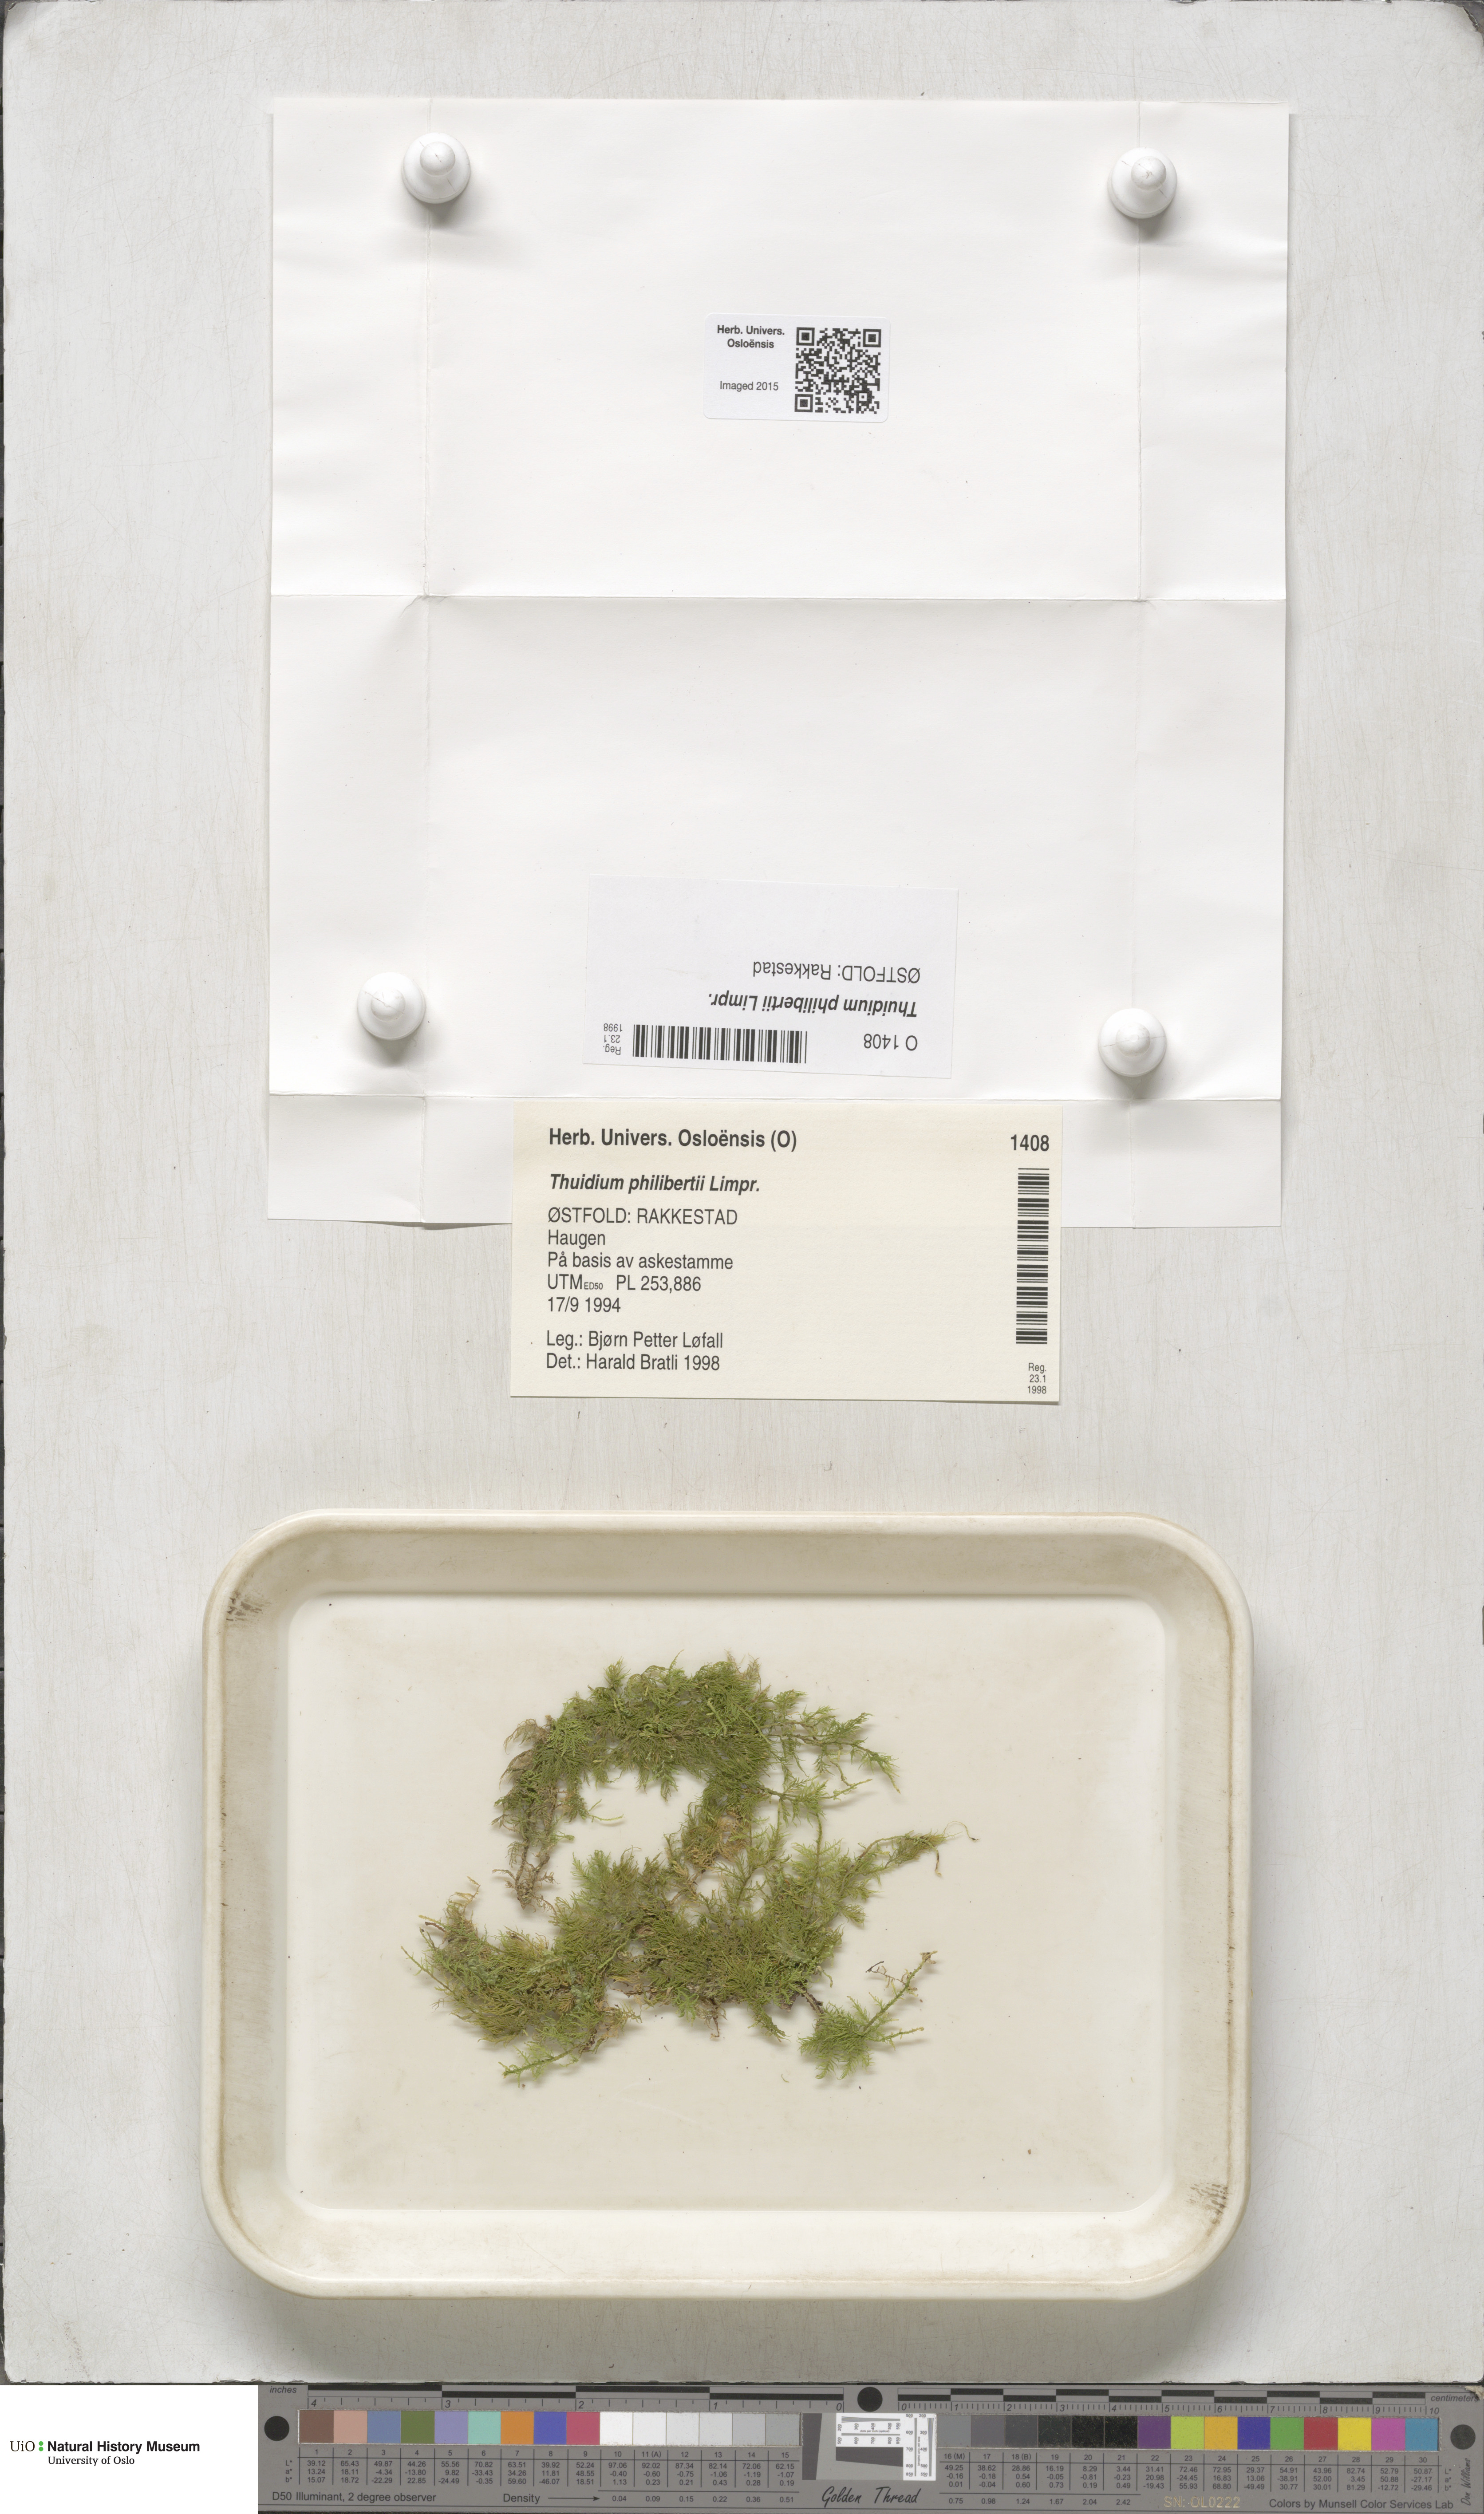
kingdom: Plantae
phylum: Bryophyta
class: Bryopsida
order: Hypnales
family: Thuidiaceae
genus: Thuidium
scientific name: Thuidium assimile
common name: Philibert's fern moss
